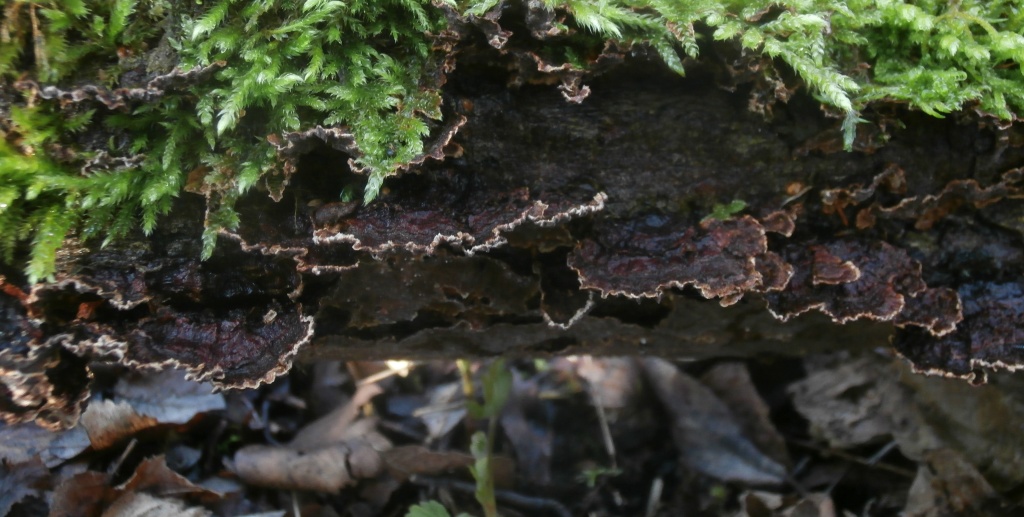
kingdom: Fungi
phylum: Basidiomycota
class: Agaricomycetes
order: Hymenochaetales
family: Hymenochaetaceae
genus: Hydnoporia
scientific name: Hydnoporia tabacina
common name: tobaksbrun ruslædersvamp
